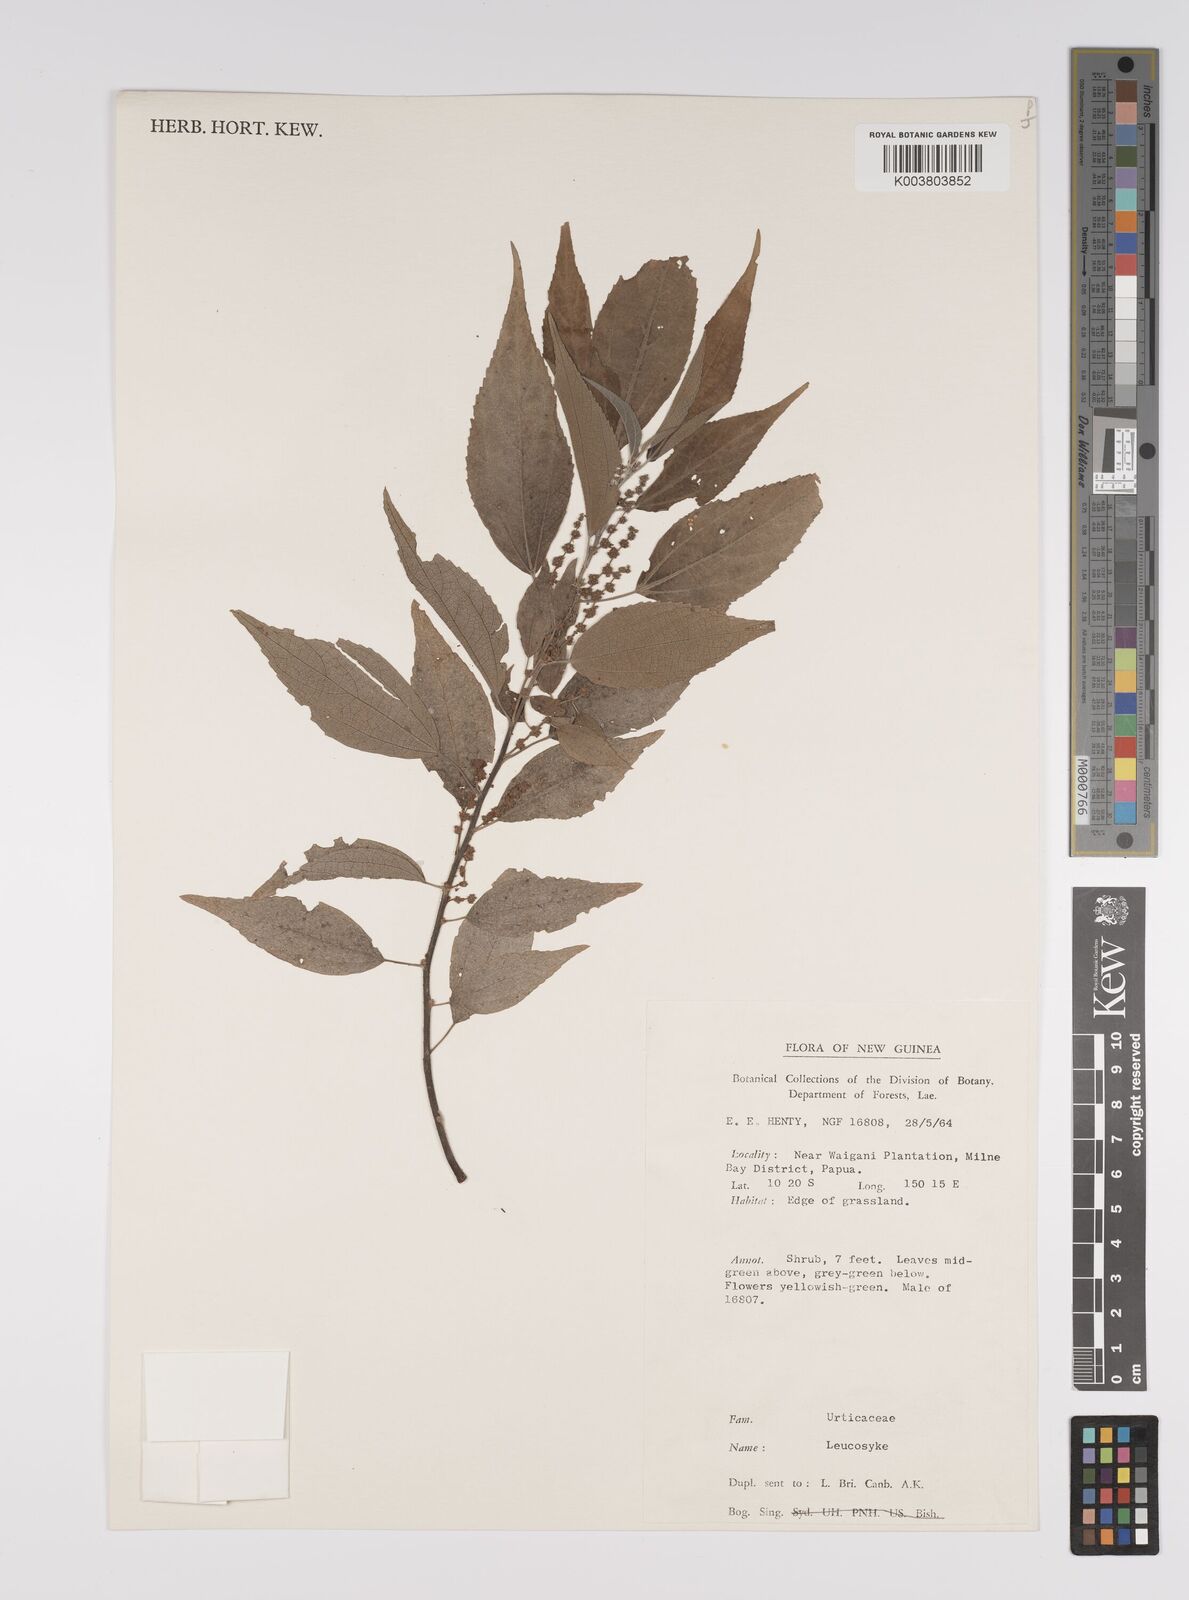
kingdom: Plantae
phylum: Tracheophyta
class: Magnoliopsida
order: Rosales
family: Urticaceae
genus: Pipturus
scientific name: Pipturus argenteus
